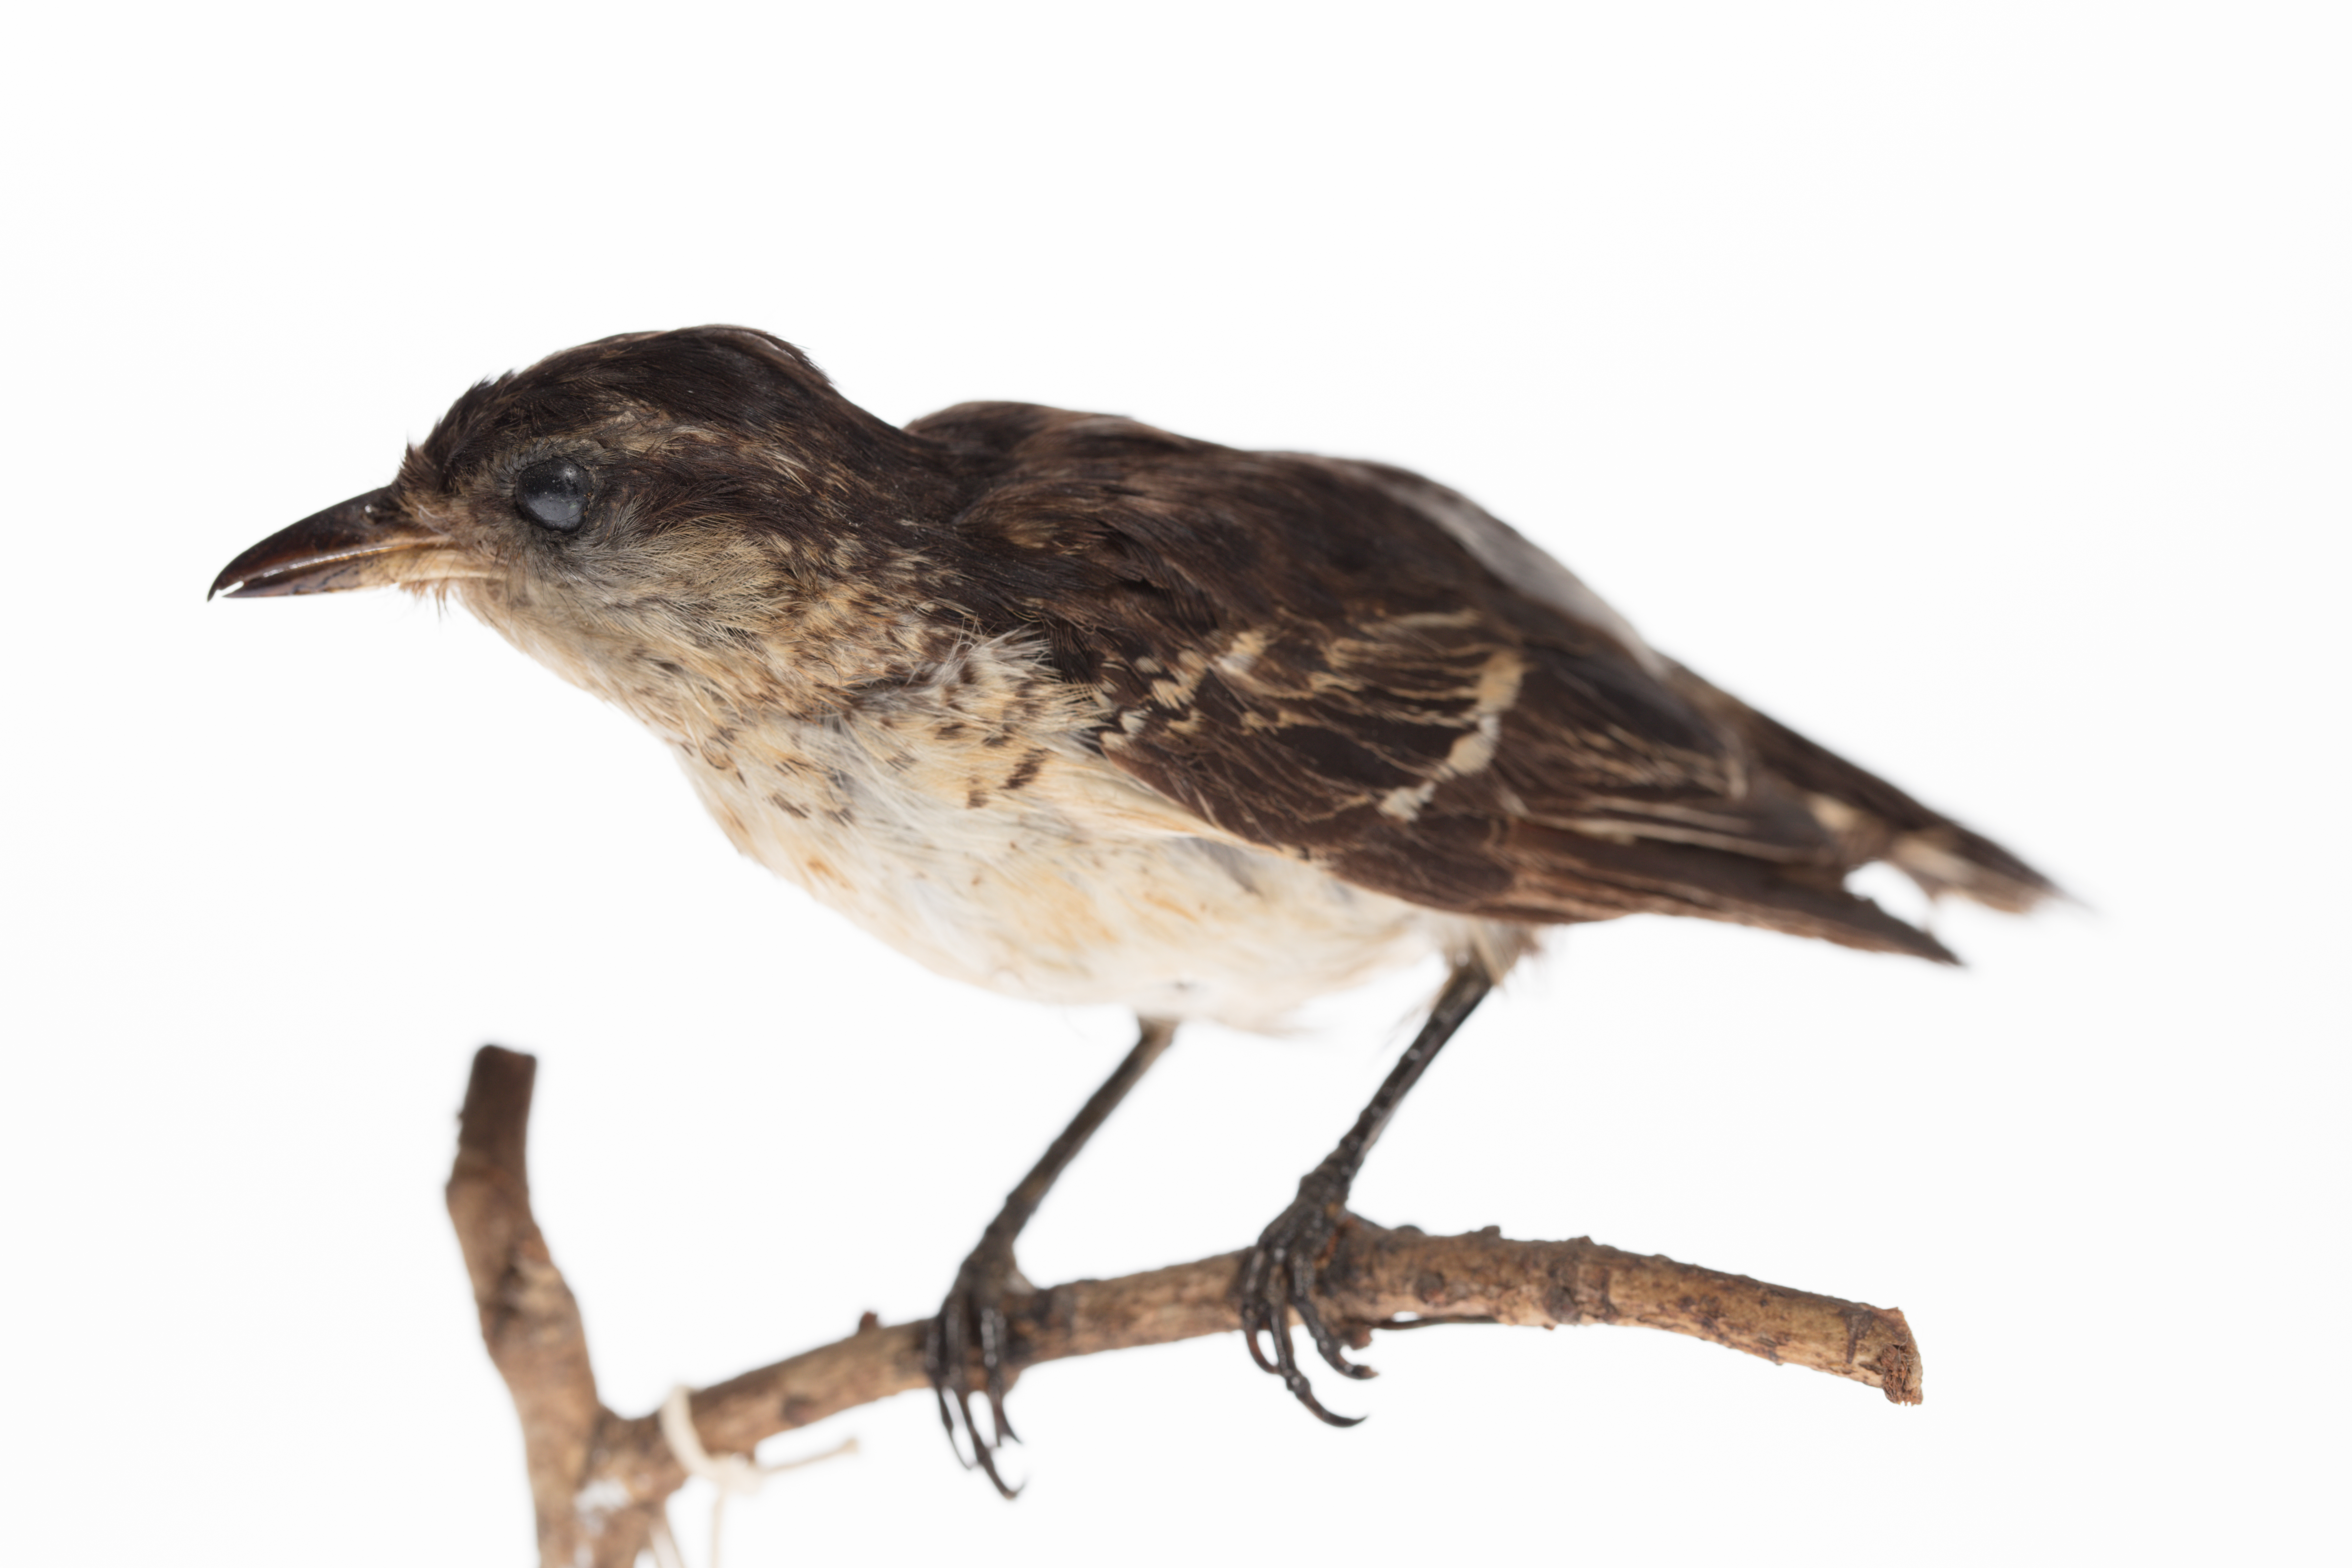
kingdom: Animalia
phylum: Chordata
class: Aves
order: Passeriformes
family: Campephagidae
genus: Lalage
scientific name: Lalage maculosa
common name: Polynesian triller
